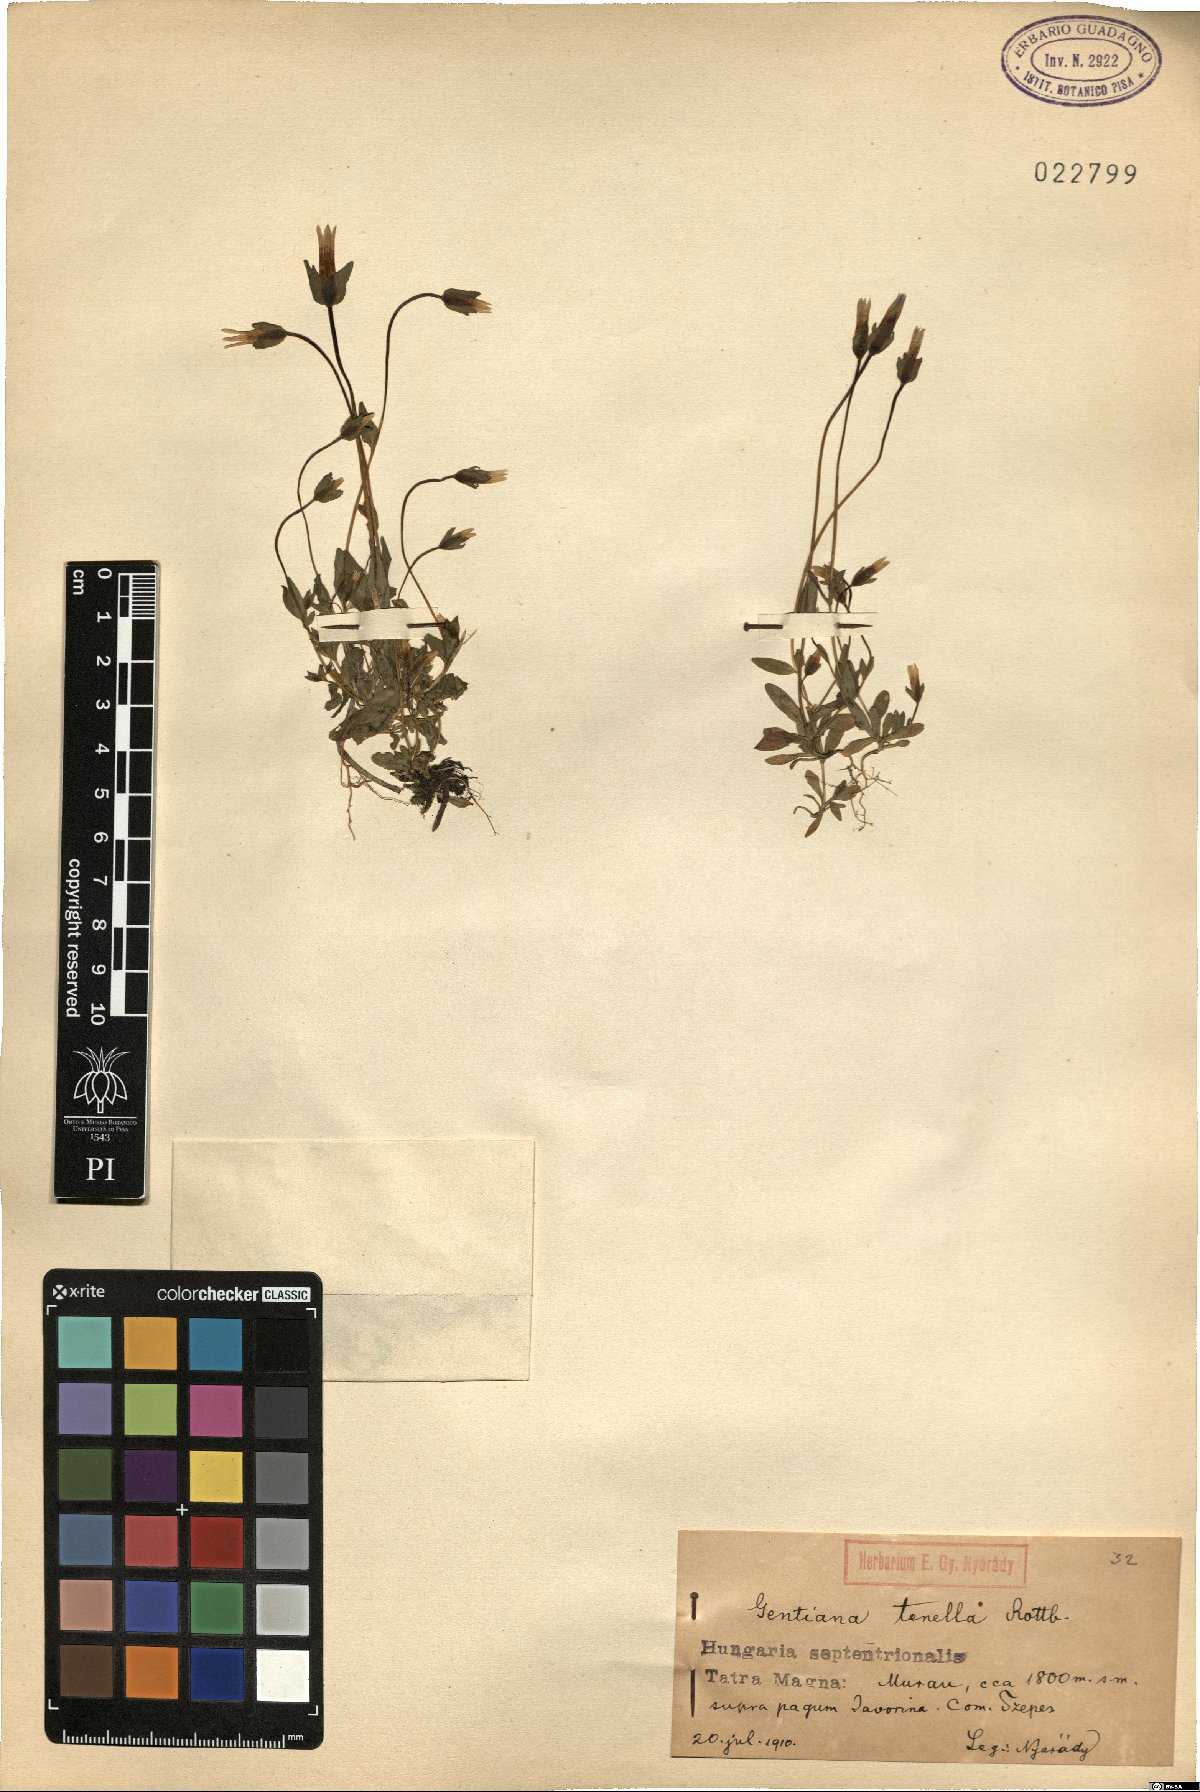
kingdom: Plantae
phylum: Tracheophyta
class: Magnoliopsida
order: Gentianales
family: Gentianaceae
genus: Comastoma
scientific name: Comastoma tenellum
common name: Dane's dwarf gentian
